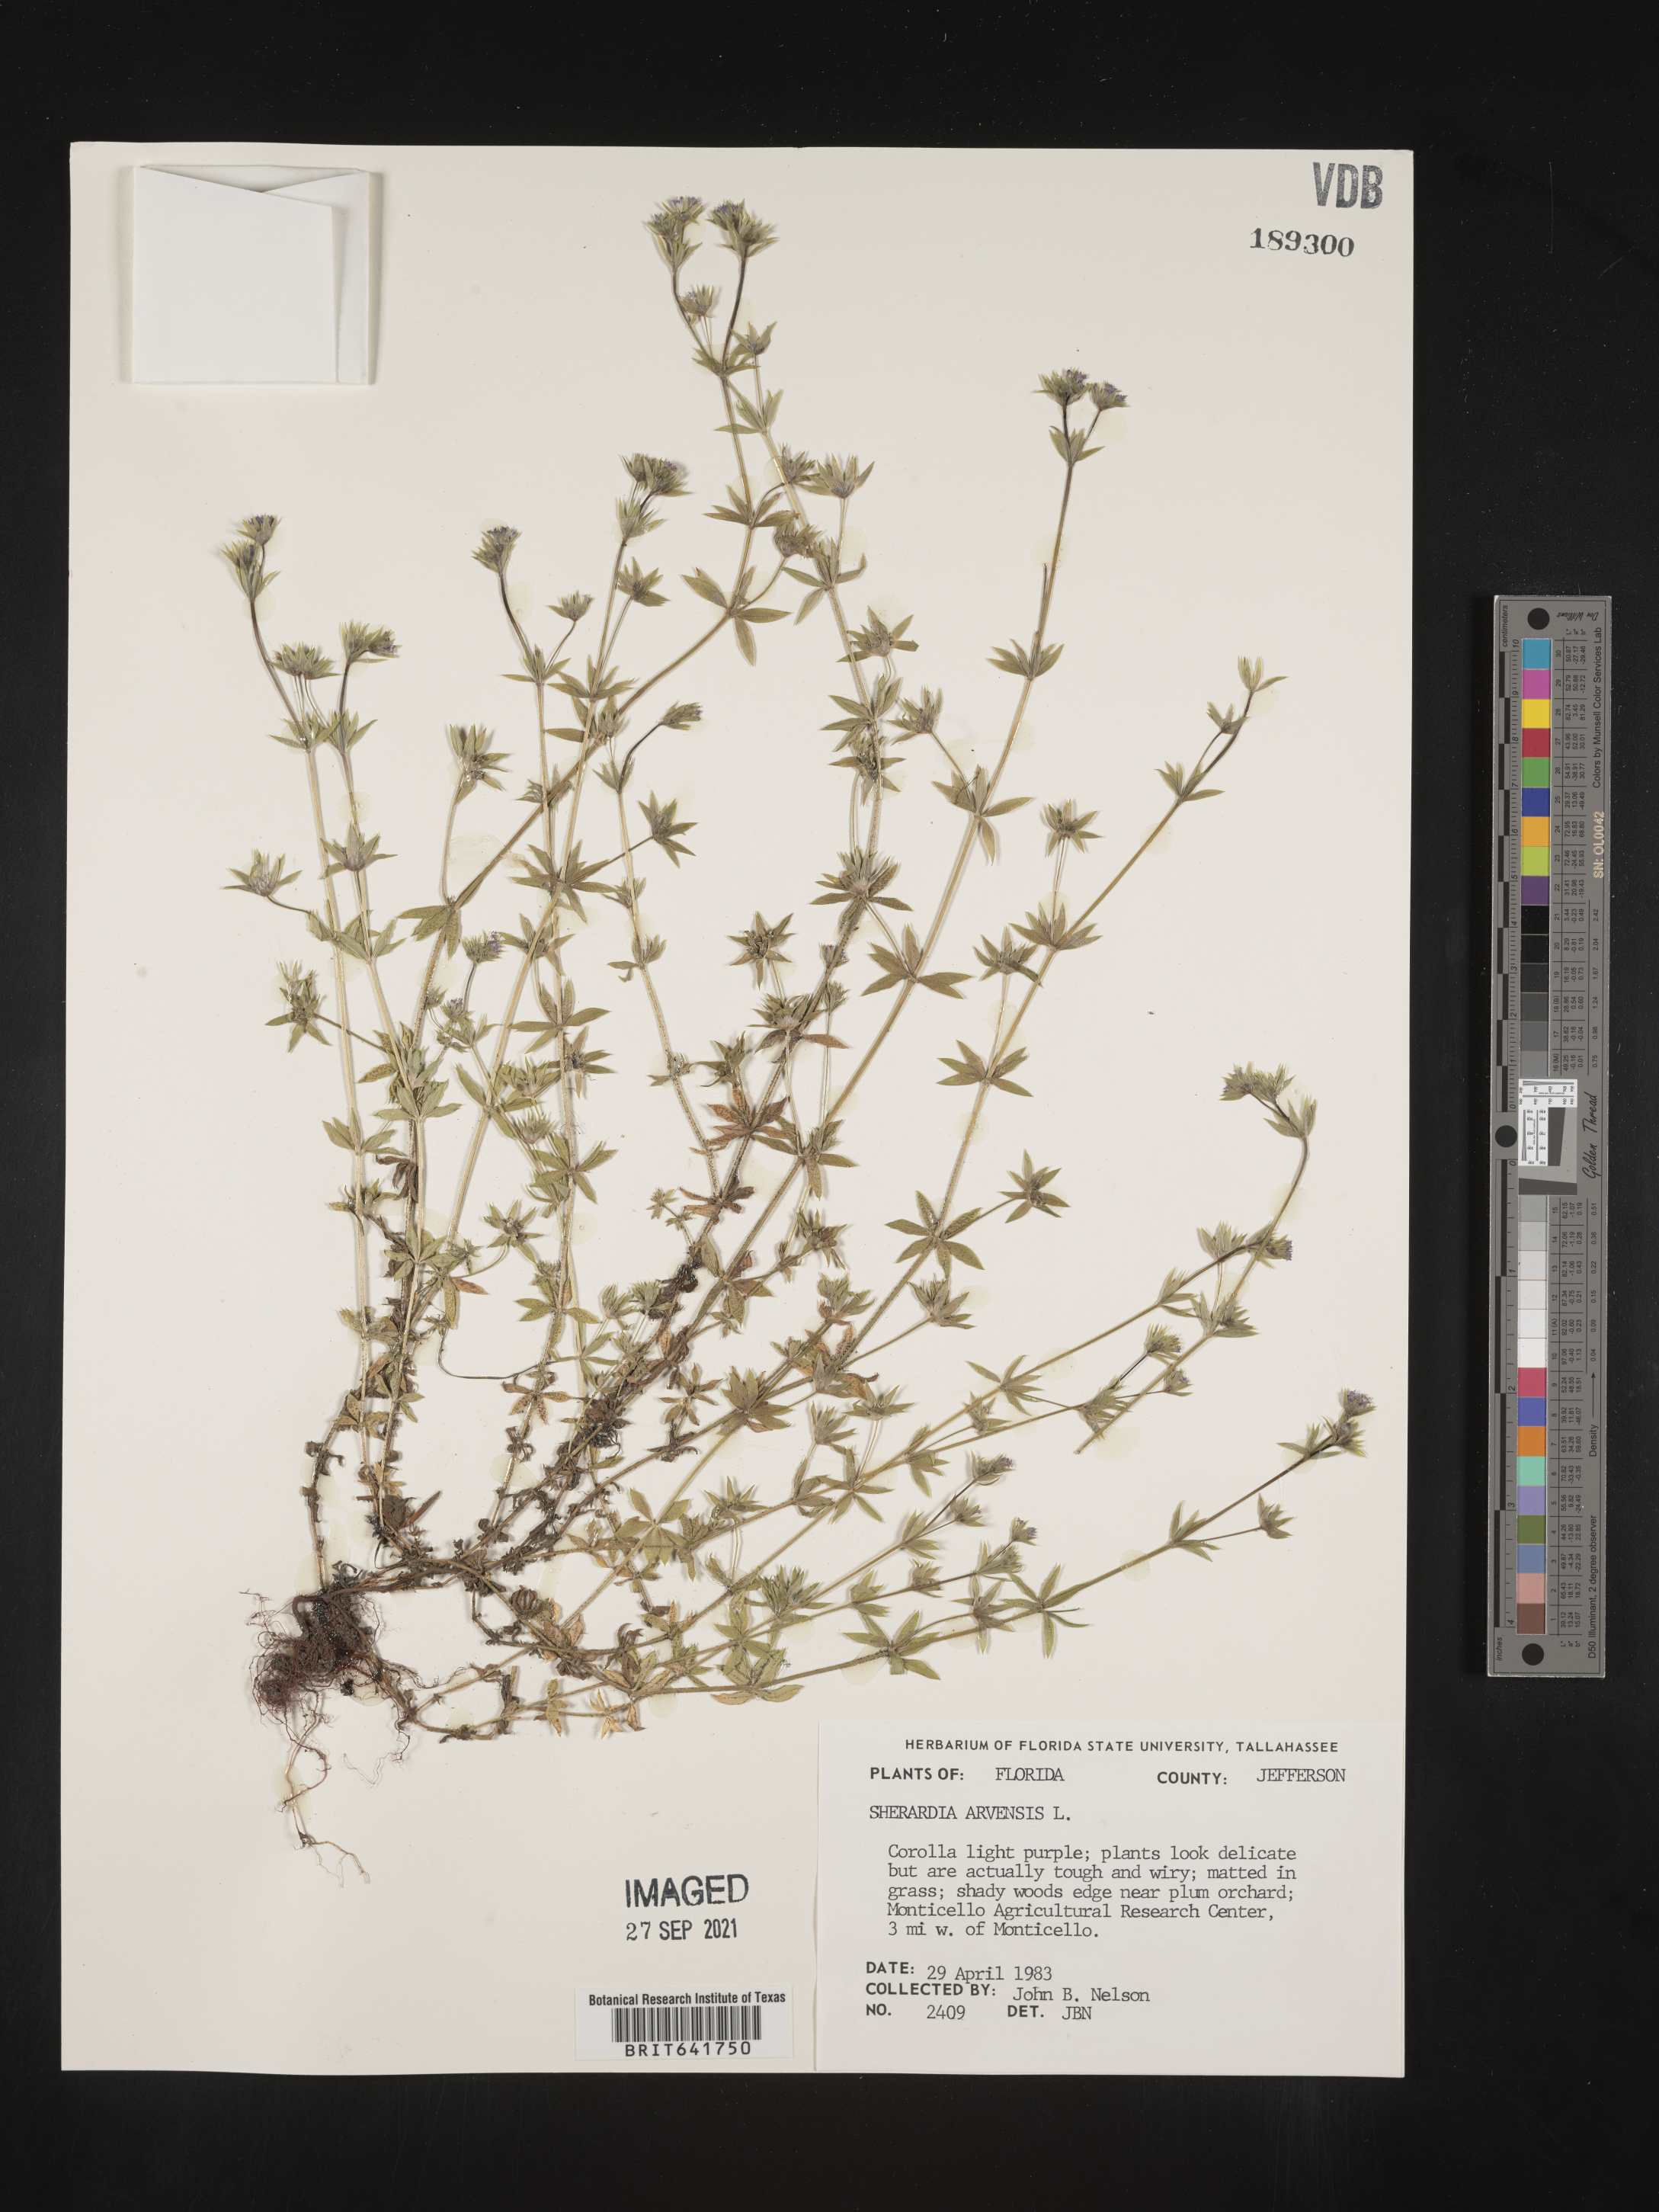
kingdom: Plantae
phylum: Tracheophyta
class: Magnoliopsida
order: Gentianales
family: Rubiaceae
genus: Sherardia
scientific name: Sherardia arvensis
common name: Field madder
